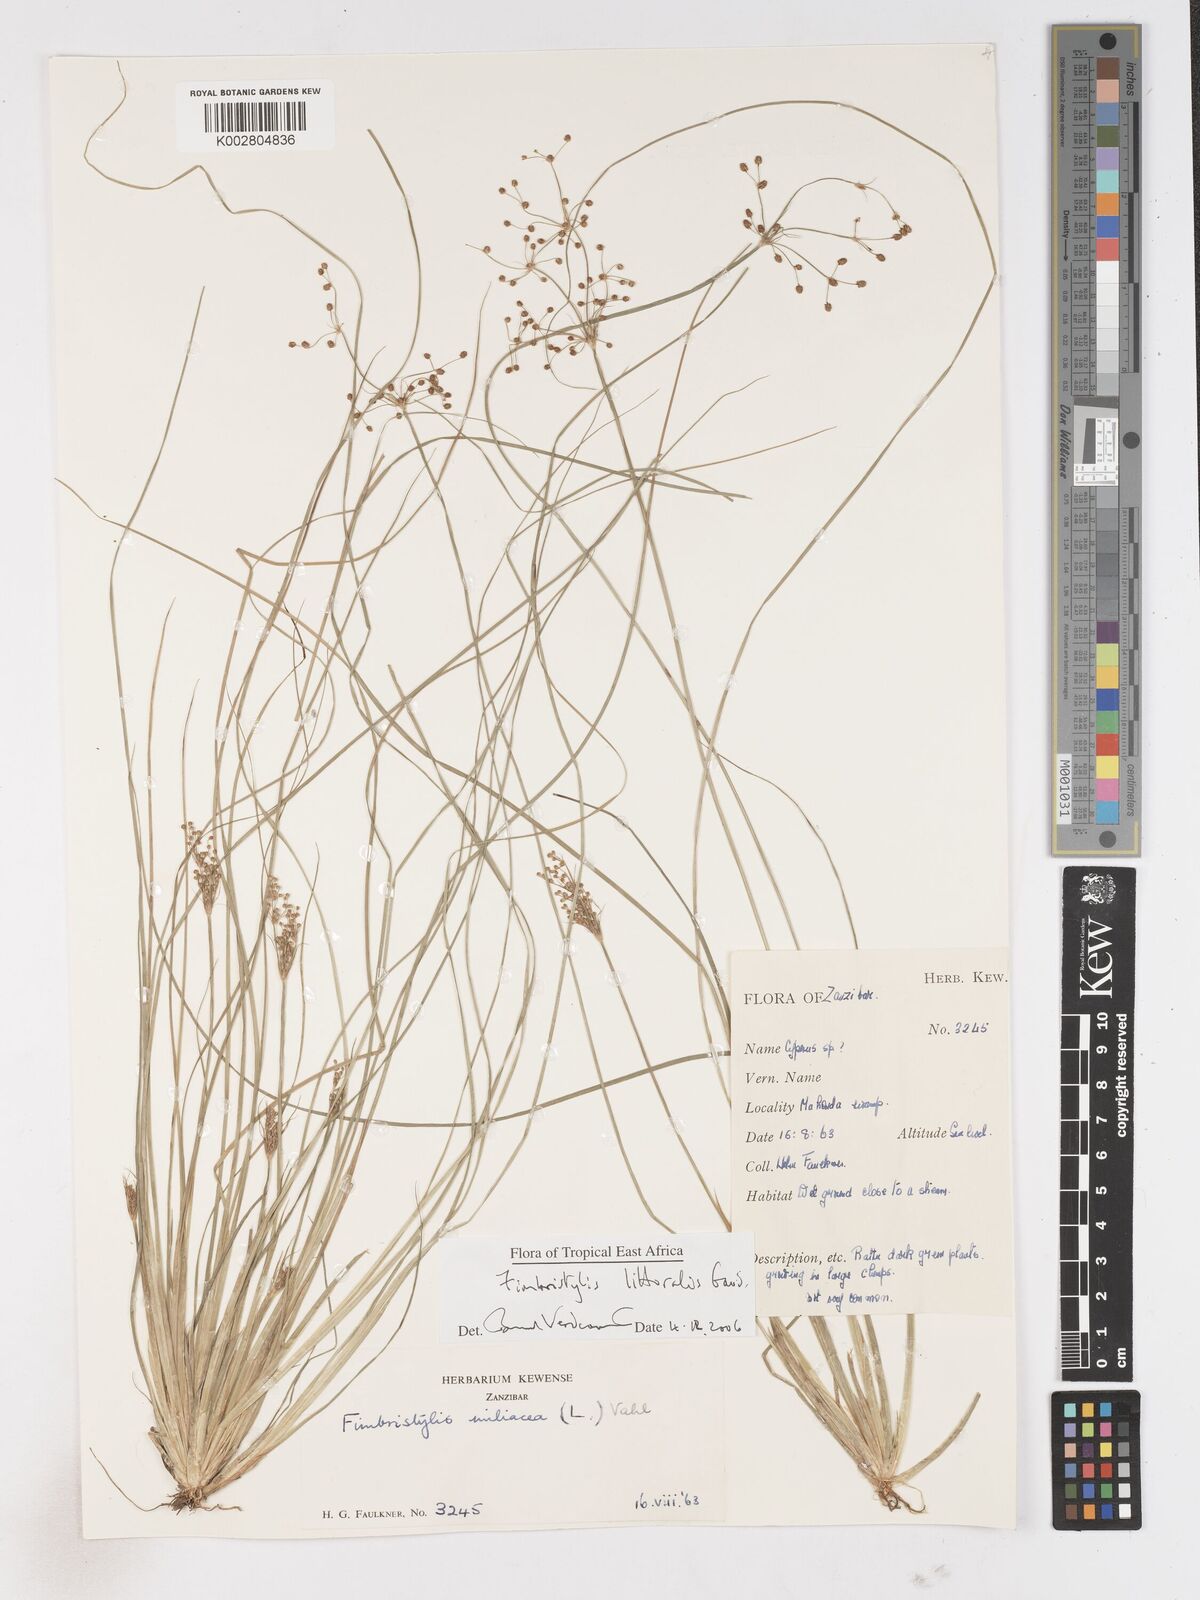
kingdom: Plantae
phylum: Tracheophyta
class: Liliopsida
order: Poales
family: Cyperaceae
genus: Fimbristylis
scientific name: Fimbristylis littoralis
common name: Fimbry
